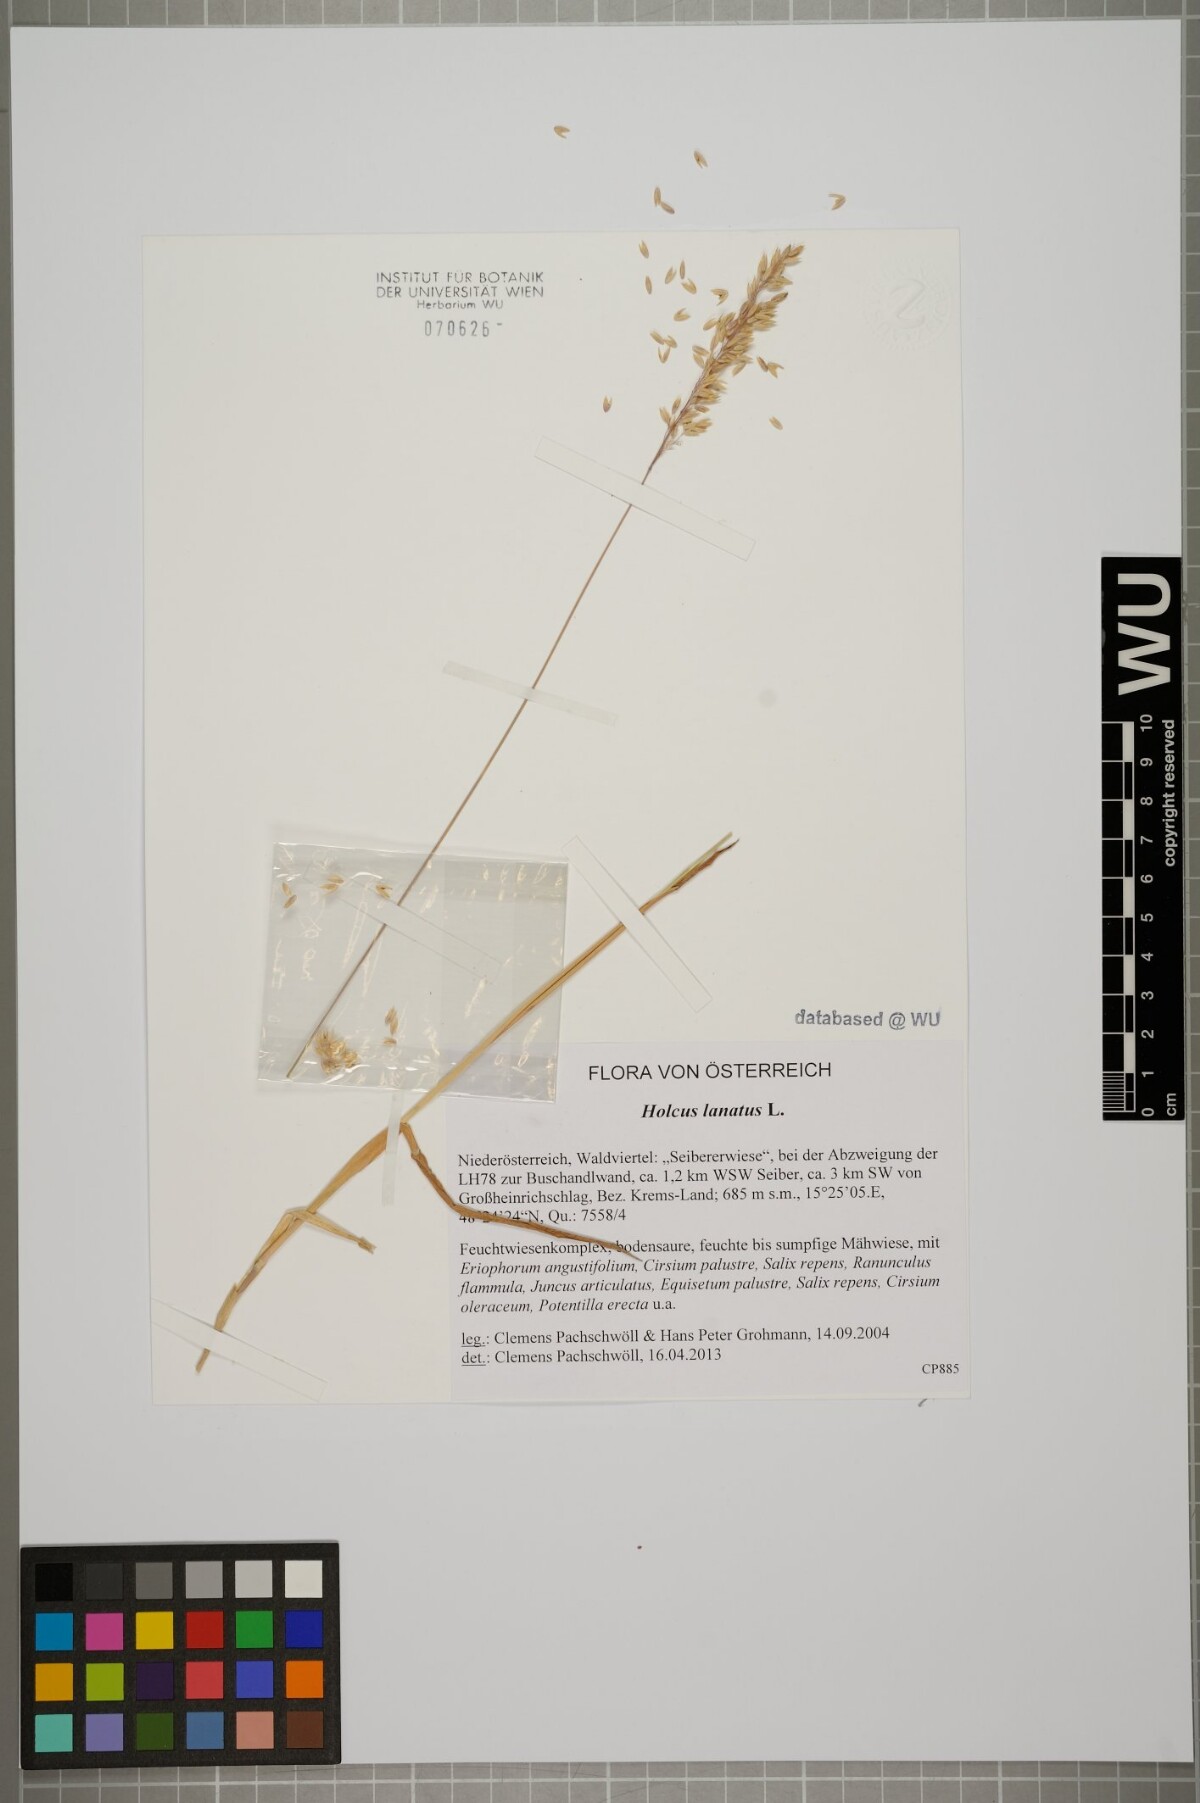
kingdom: Plantae
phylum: Tracheophyta
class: Liliopsida
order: Poales
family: Poaceae
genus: Holcus
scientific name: Holcus lanatus
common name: Yorkshire-fog
